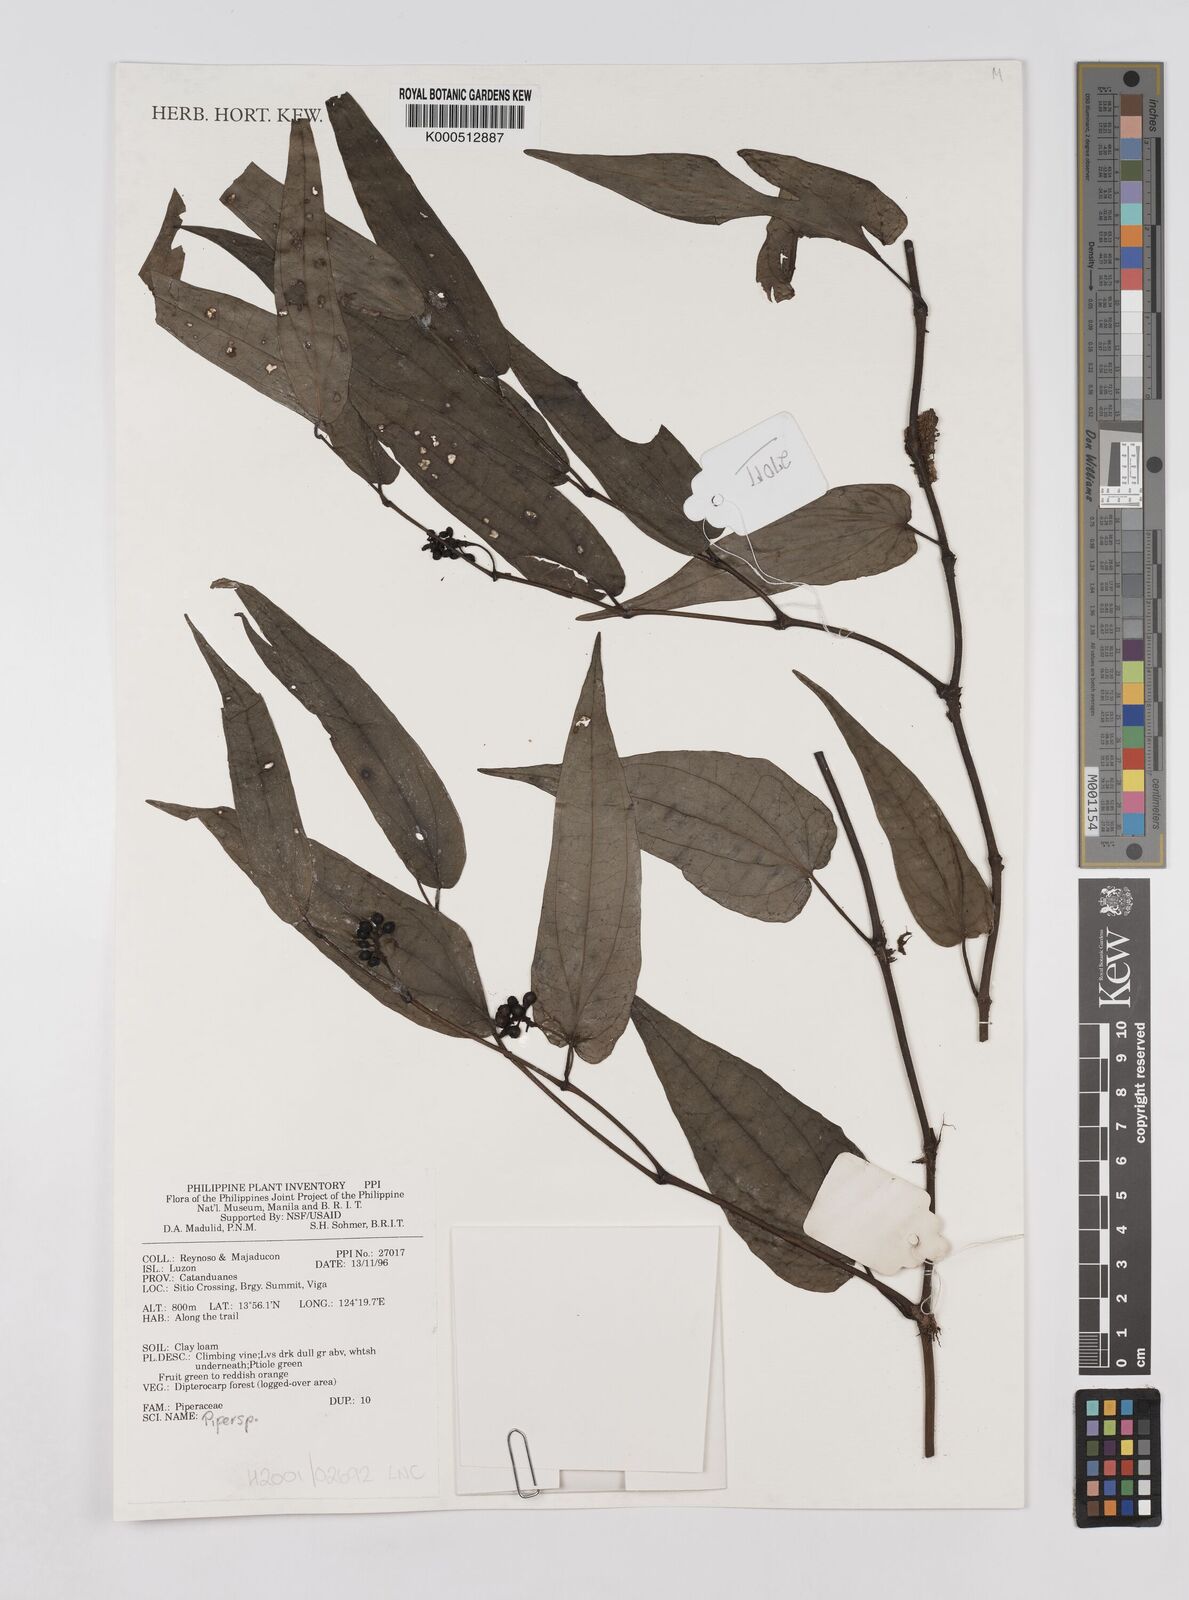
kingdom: Plantae
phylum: Tracheophyta
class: Magnoliopsida
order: Piperales
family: Piperaceae
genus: Piper
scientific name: Piper
